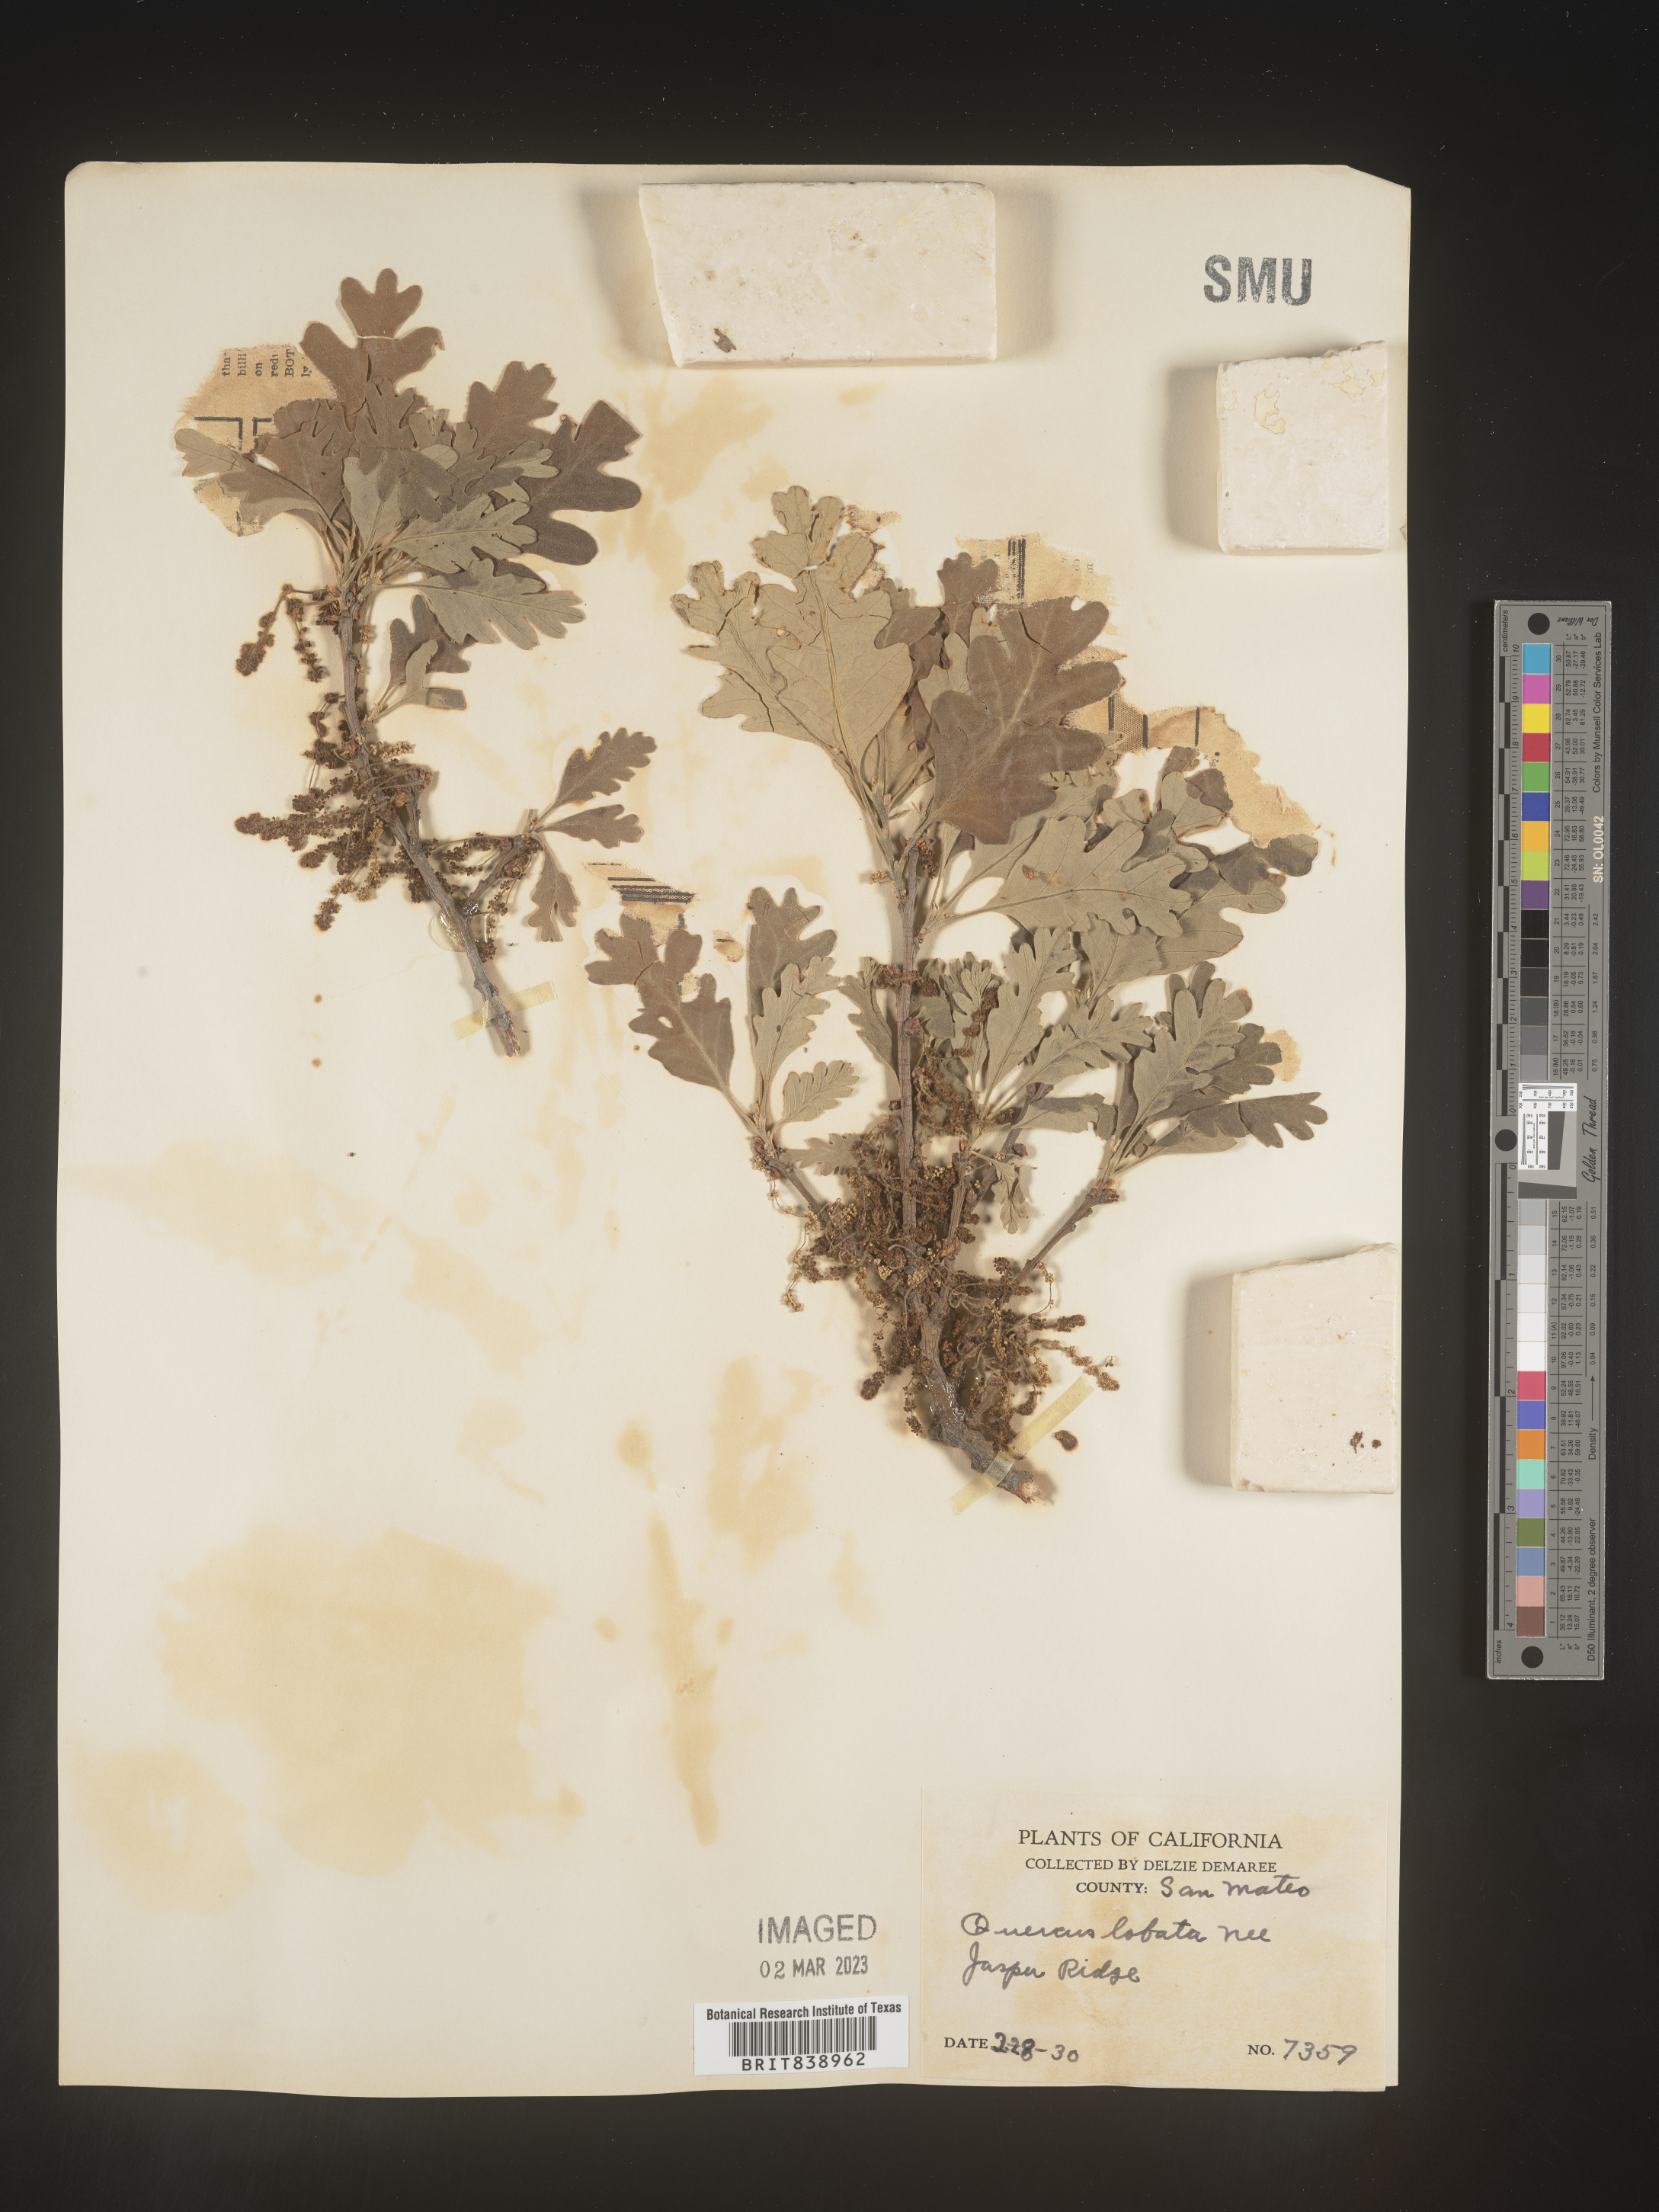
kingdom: Plantae
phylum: Tracheophyta
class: Magnoliopsida
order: Fagales
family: Fagaceae
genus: Quercus
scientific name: Quercus
